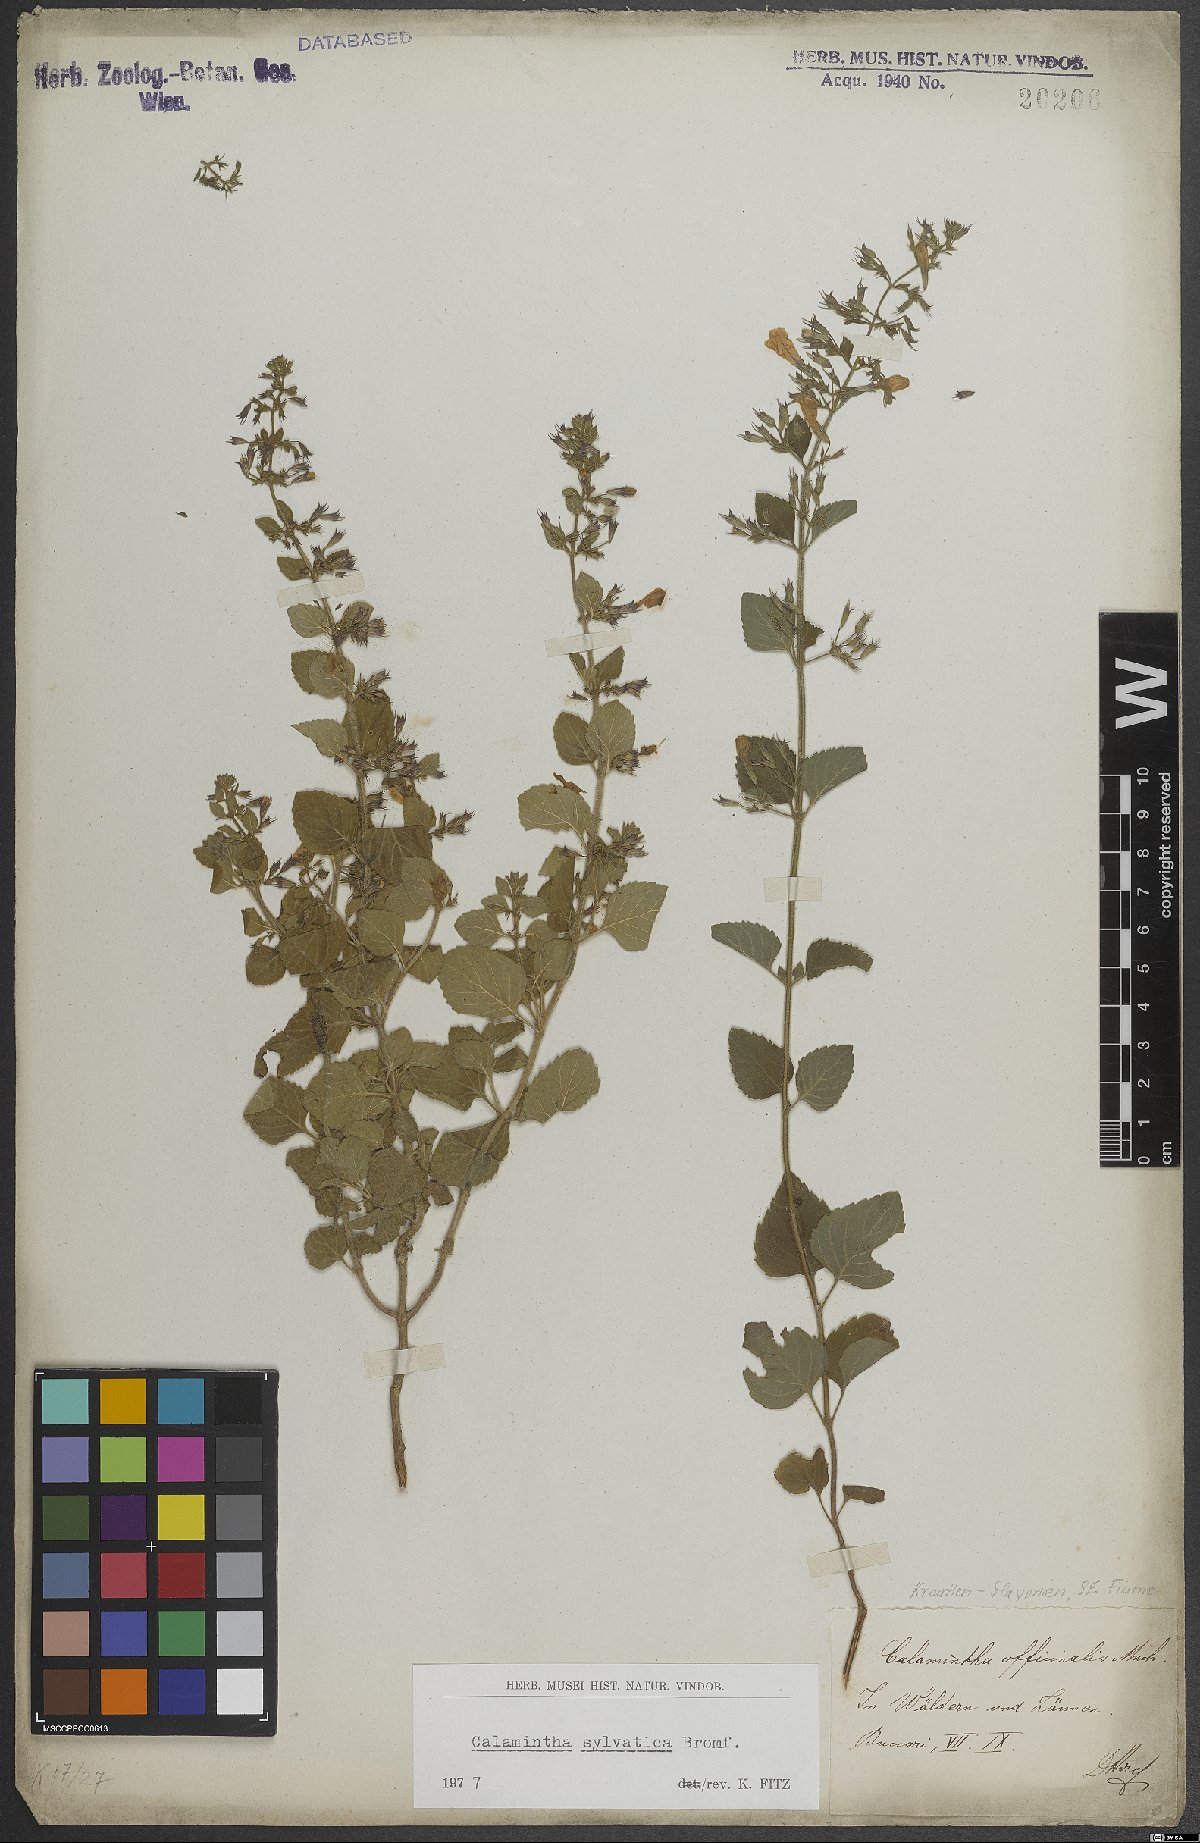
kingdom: Plantae
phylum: Tracheophyta
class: Magnoliopsida
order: Lamiales
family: Lamiaceae
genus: Clinopodium
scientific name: Clinopodium menthifolium
